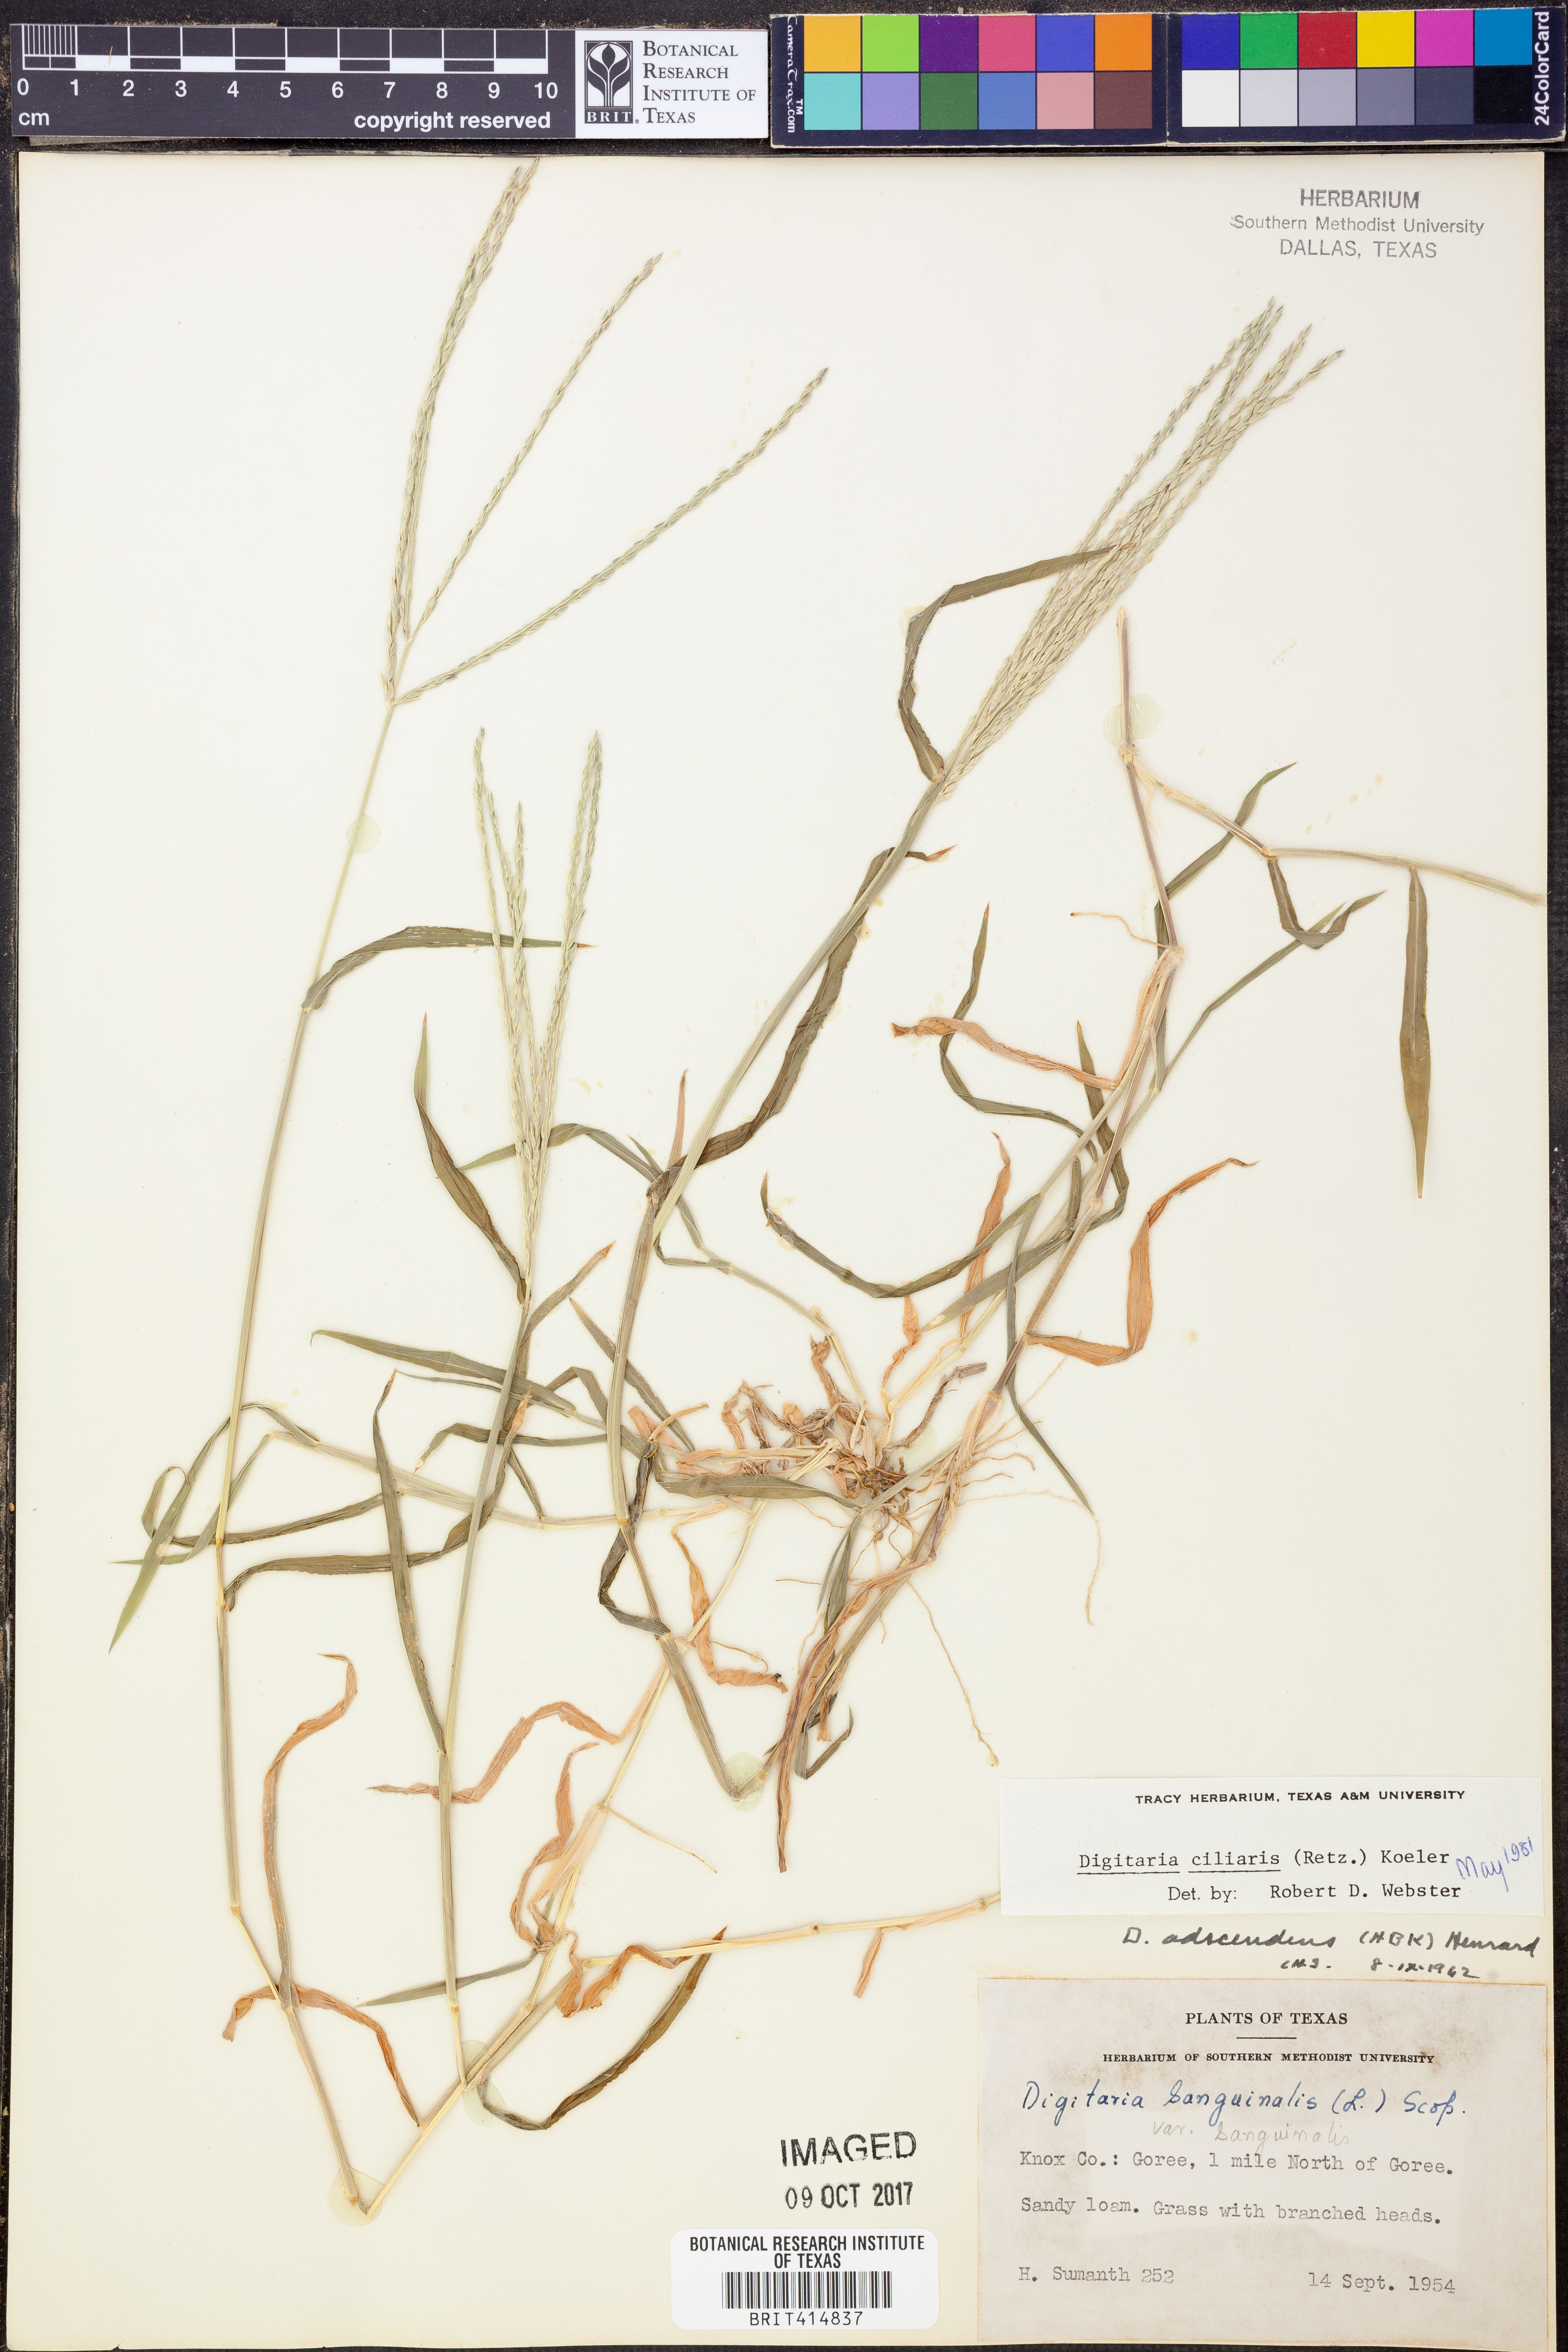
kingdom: Plantae
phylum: Tracheophyta
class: Liliopsida
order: Poales
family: Poaceae
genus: Digitaria
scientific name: Digitaria ciliaris
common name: Tropical finger-grass
